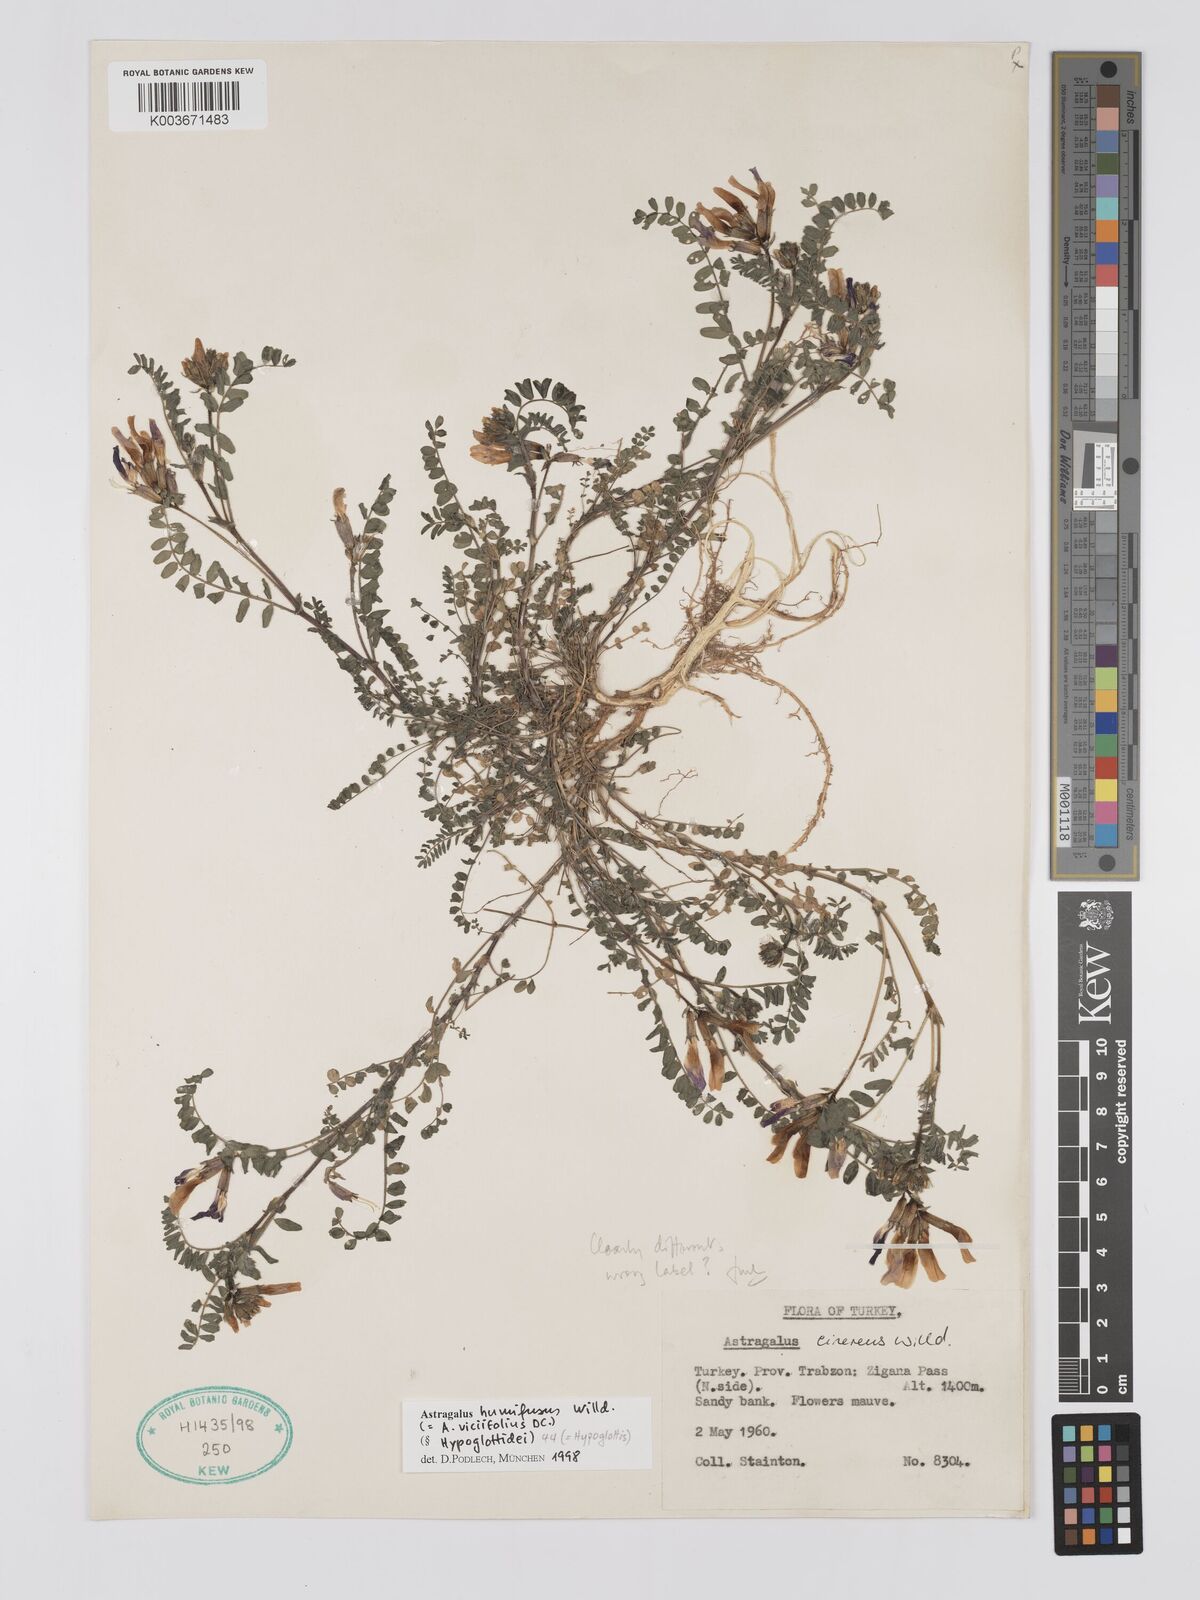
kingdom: Plantae
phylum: Tracheophyta
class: Magnoliopsida
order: Fabales
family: Fabaceae
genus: Astragalus
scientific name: Astragalus humifusus
